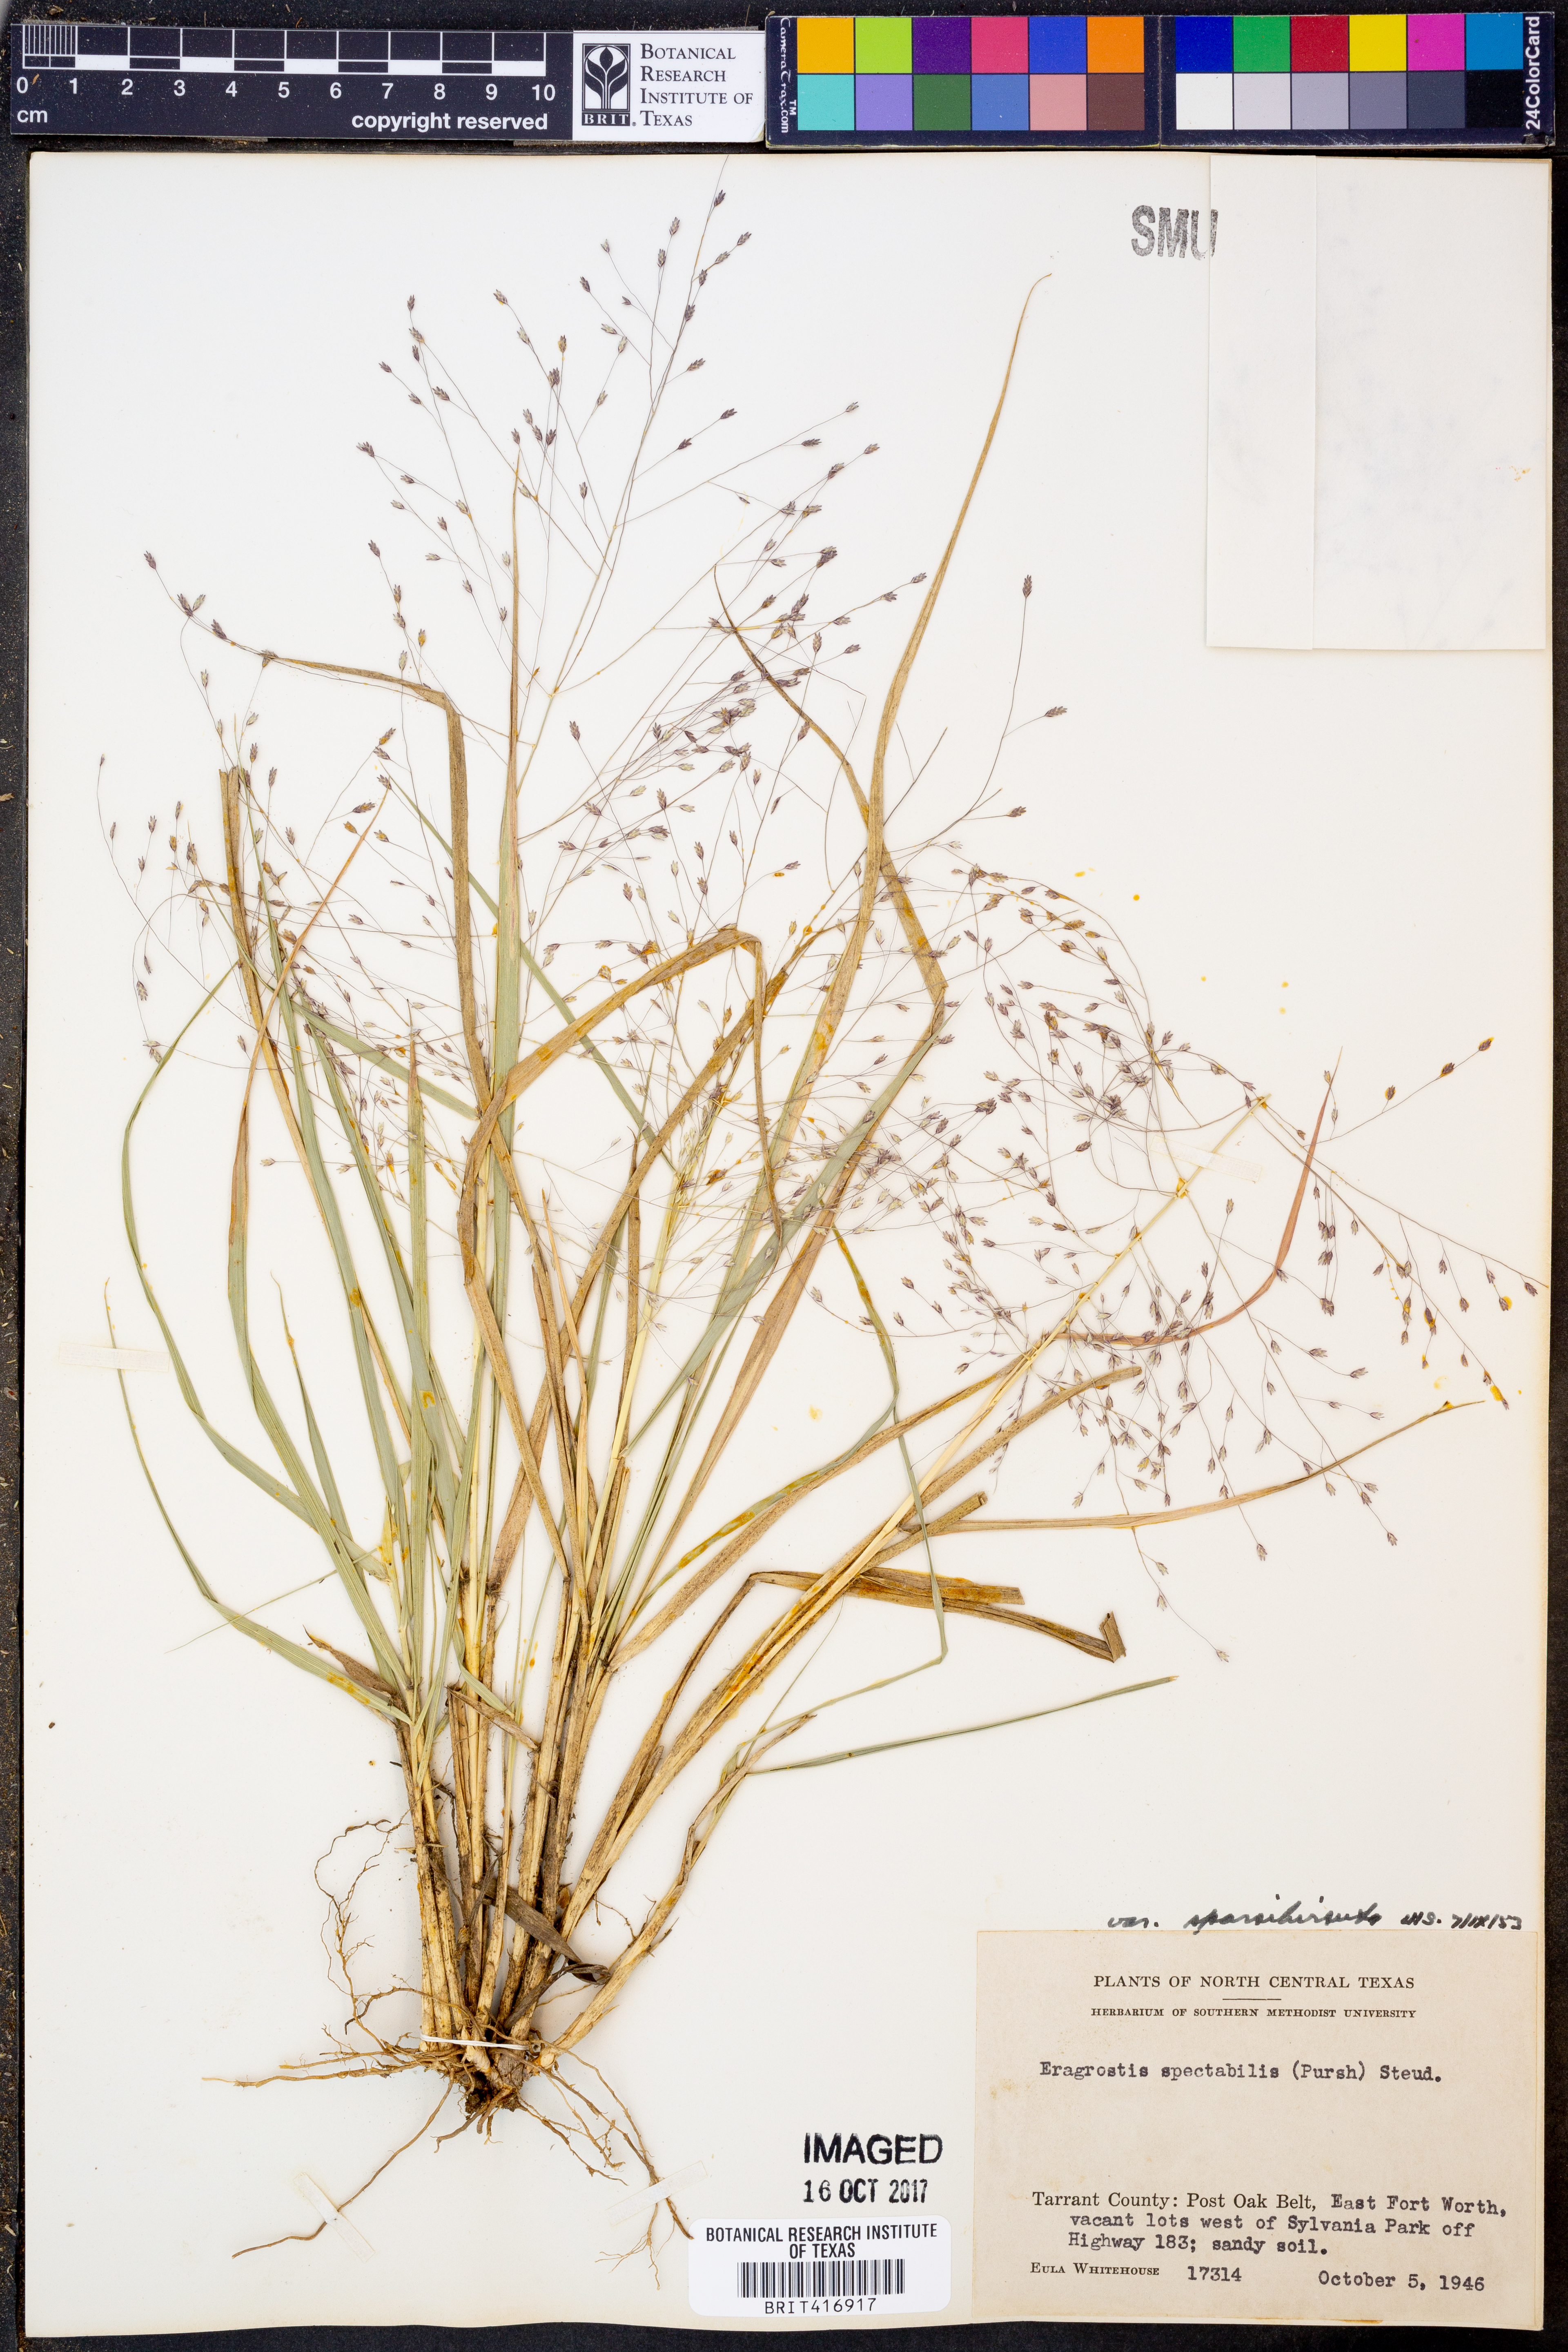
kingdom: Plantae
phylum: Tracheophyta
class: Liliopsida
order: Poales
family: Poaceae
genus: Eragrostis
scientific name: Eragrostis spectabilis
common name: Petticoat-climber
